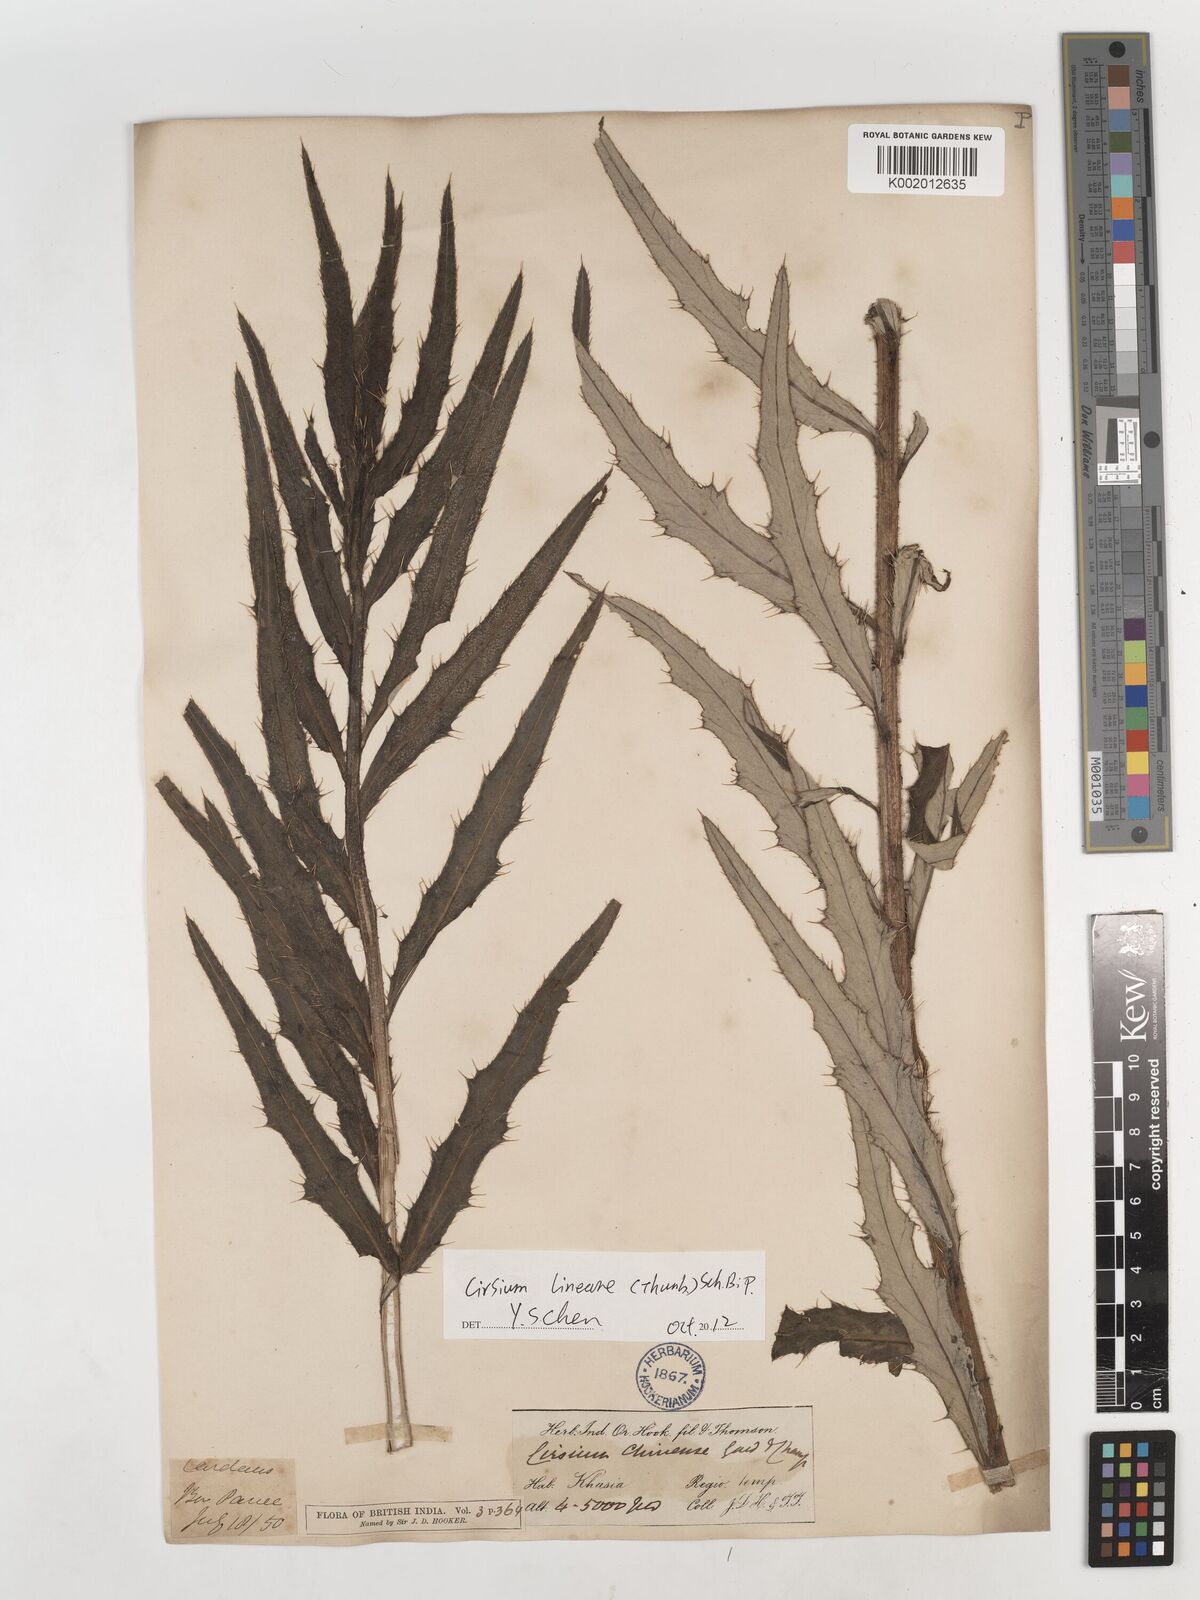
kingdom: Plantae
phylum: Tracheophyta
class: Magnoliopsida
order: Asterales
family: Asteraceae
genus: Cirsium
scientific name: Cirsium chinense
